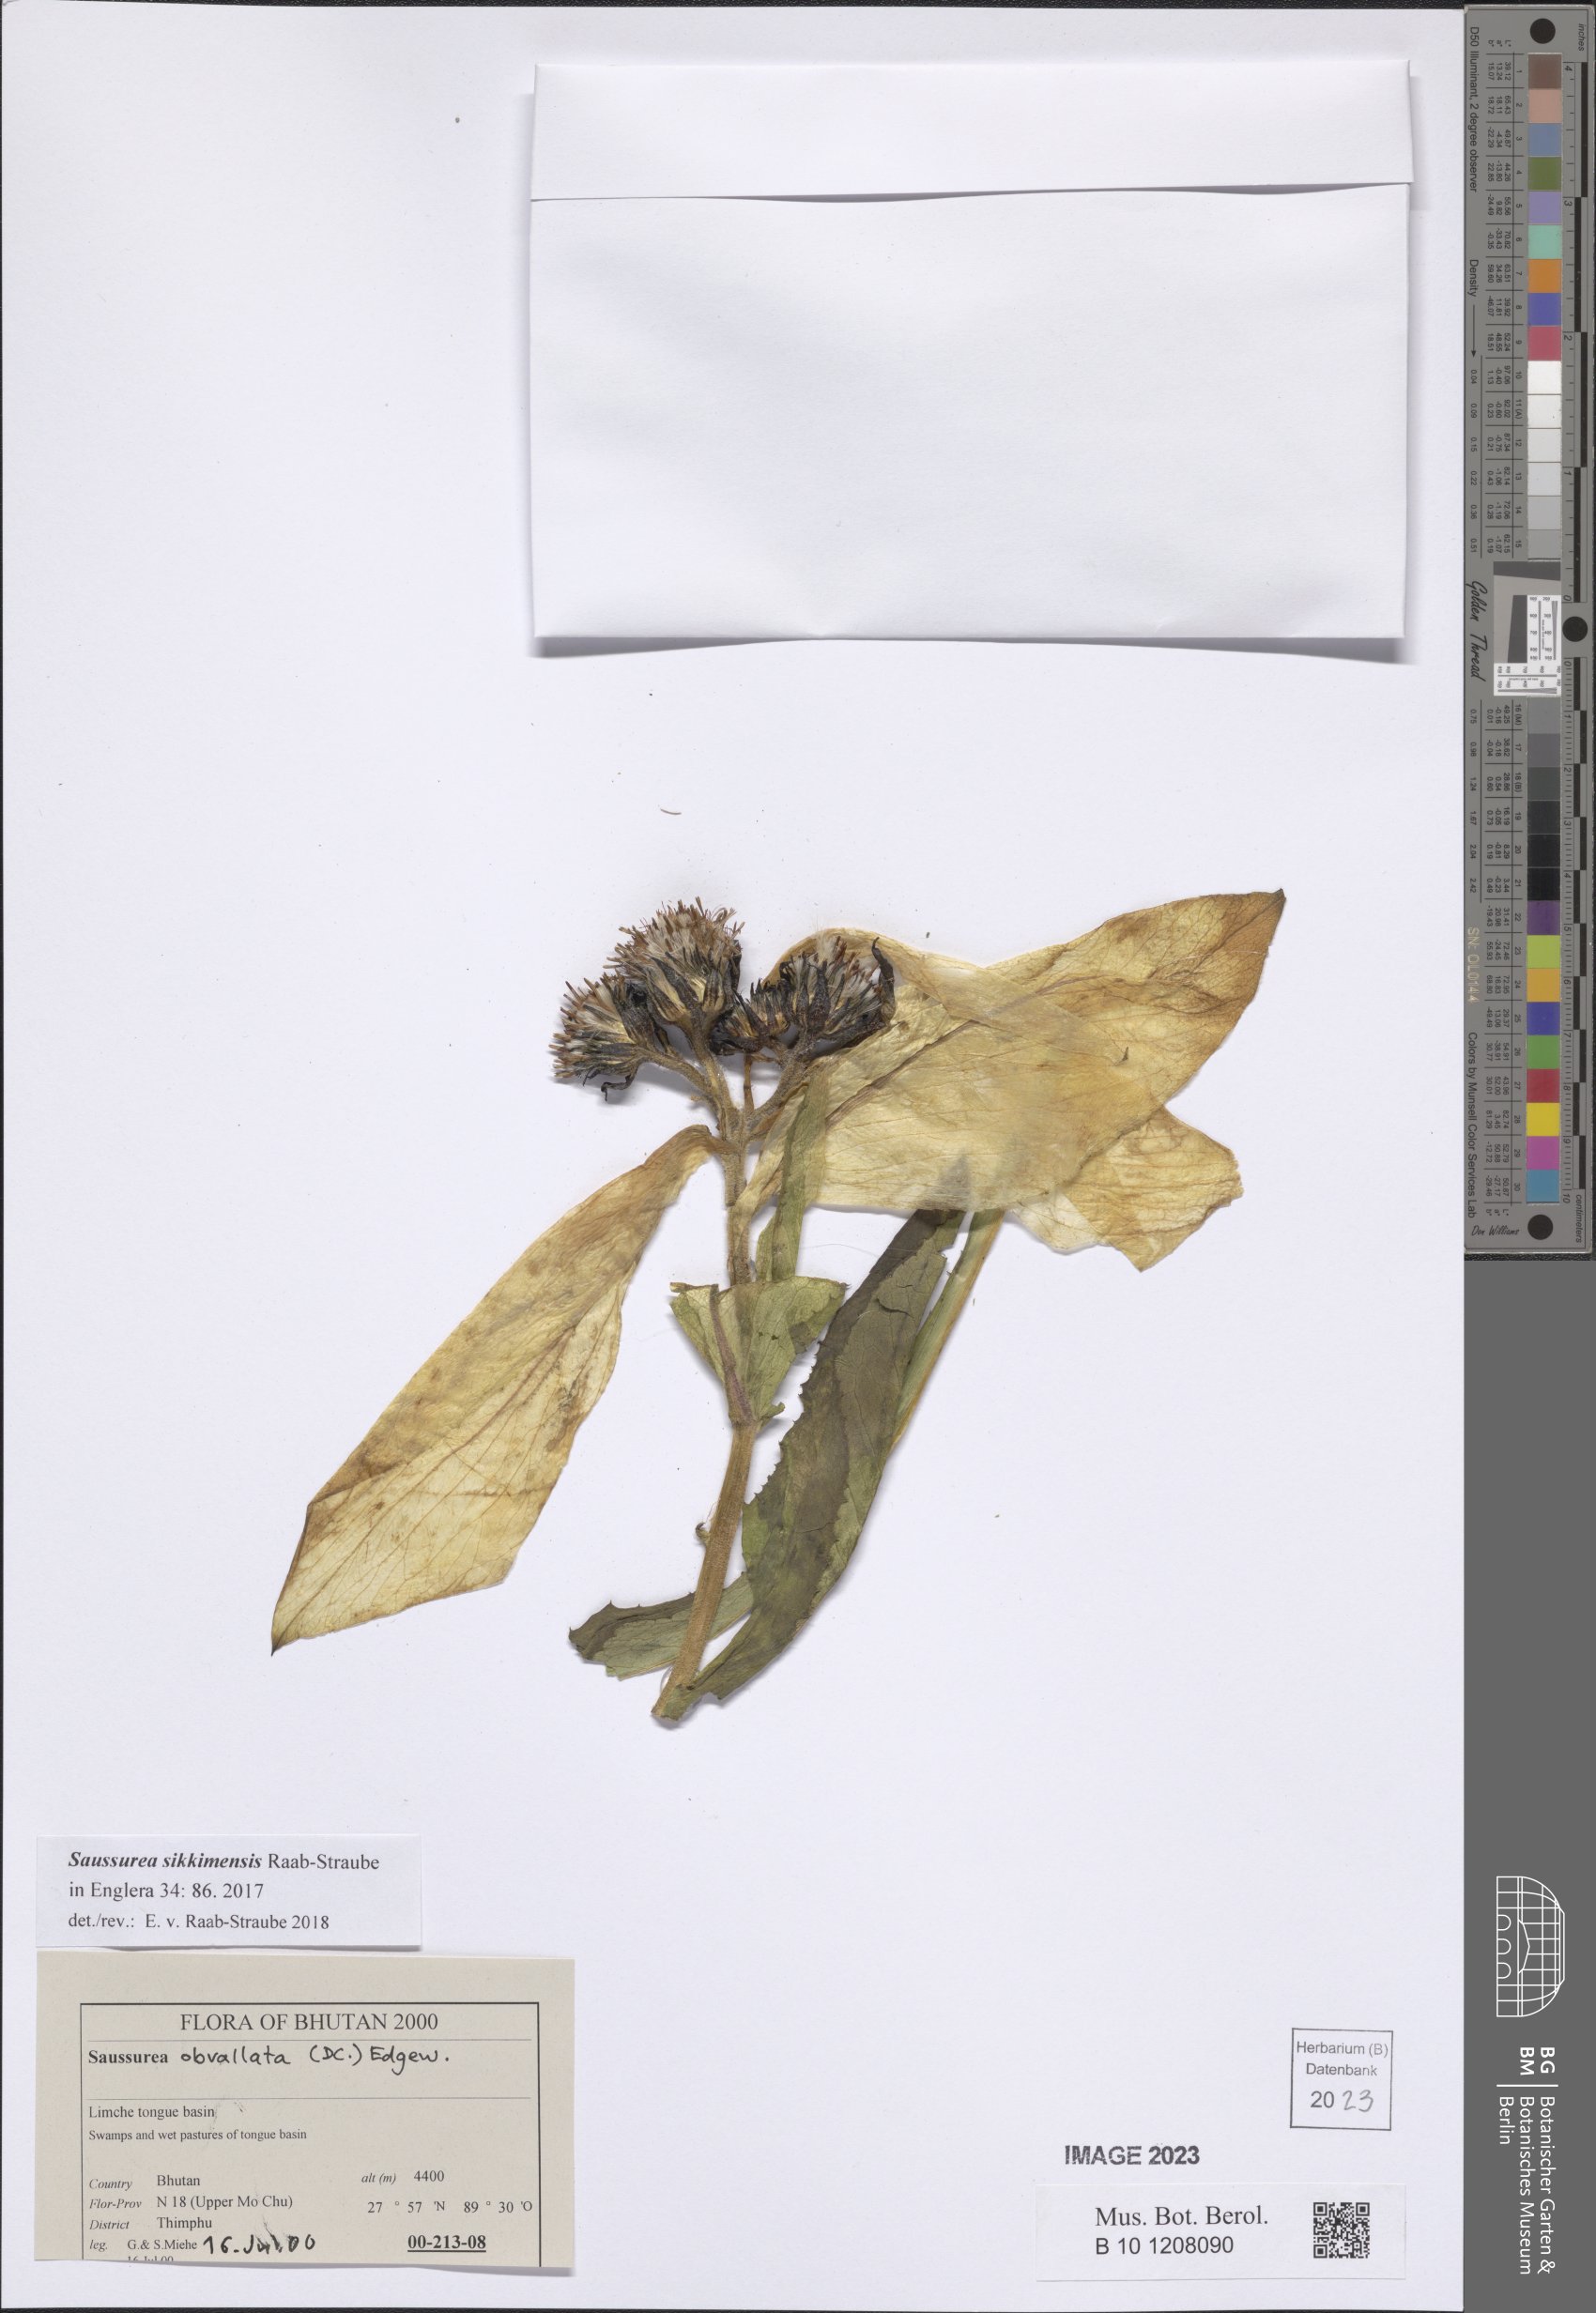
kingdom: Plantae
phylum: Tracheophyta
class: Magnoliopsida
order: Asterales
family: Asteraceae
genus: Saussurea
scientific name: Saussurea sikkimensis
